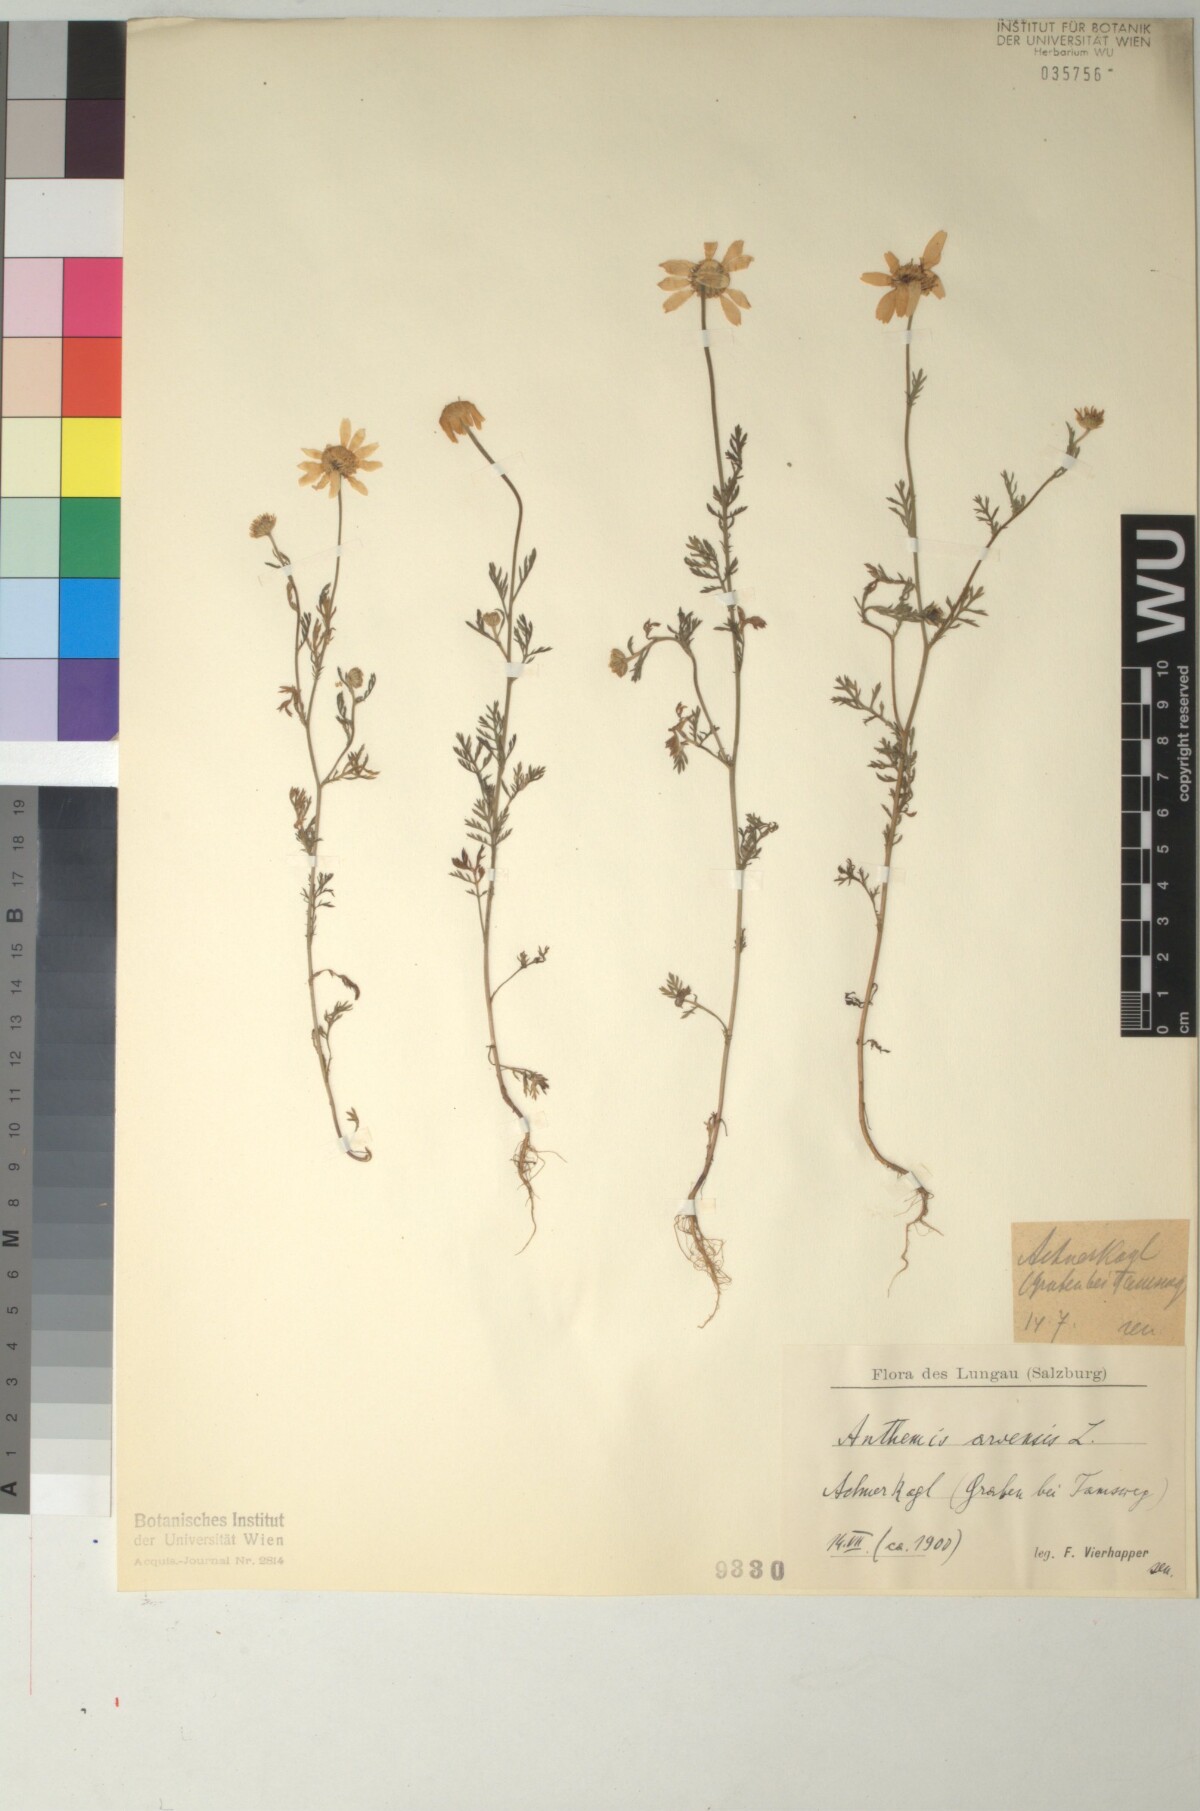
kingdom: Plantae
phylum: Tracheophyta
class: Magnoliopsida
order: Asterales
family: Asteraceae
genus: Anthemis
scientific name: Anthemis arvensis
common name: Corn chamomile
